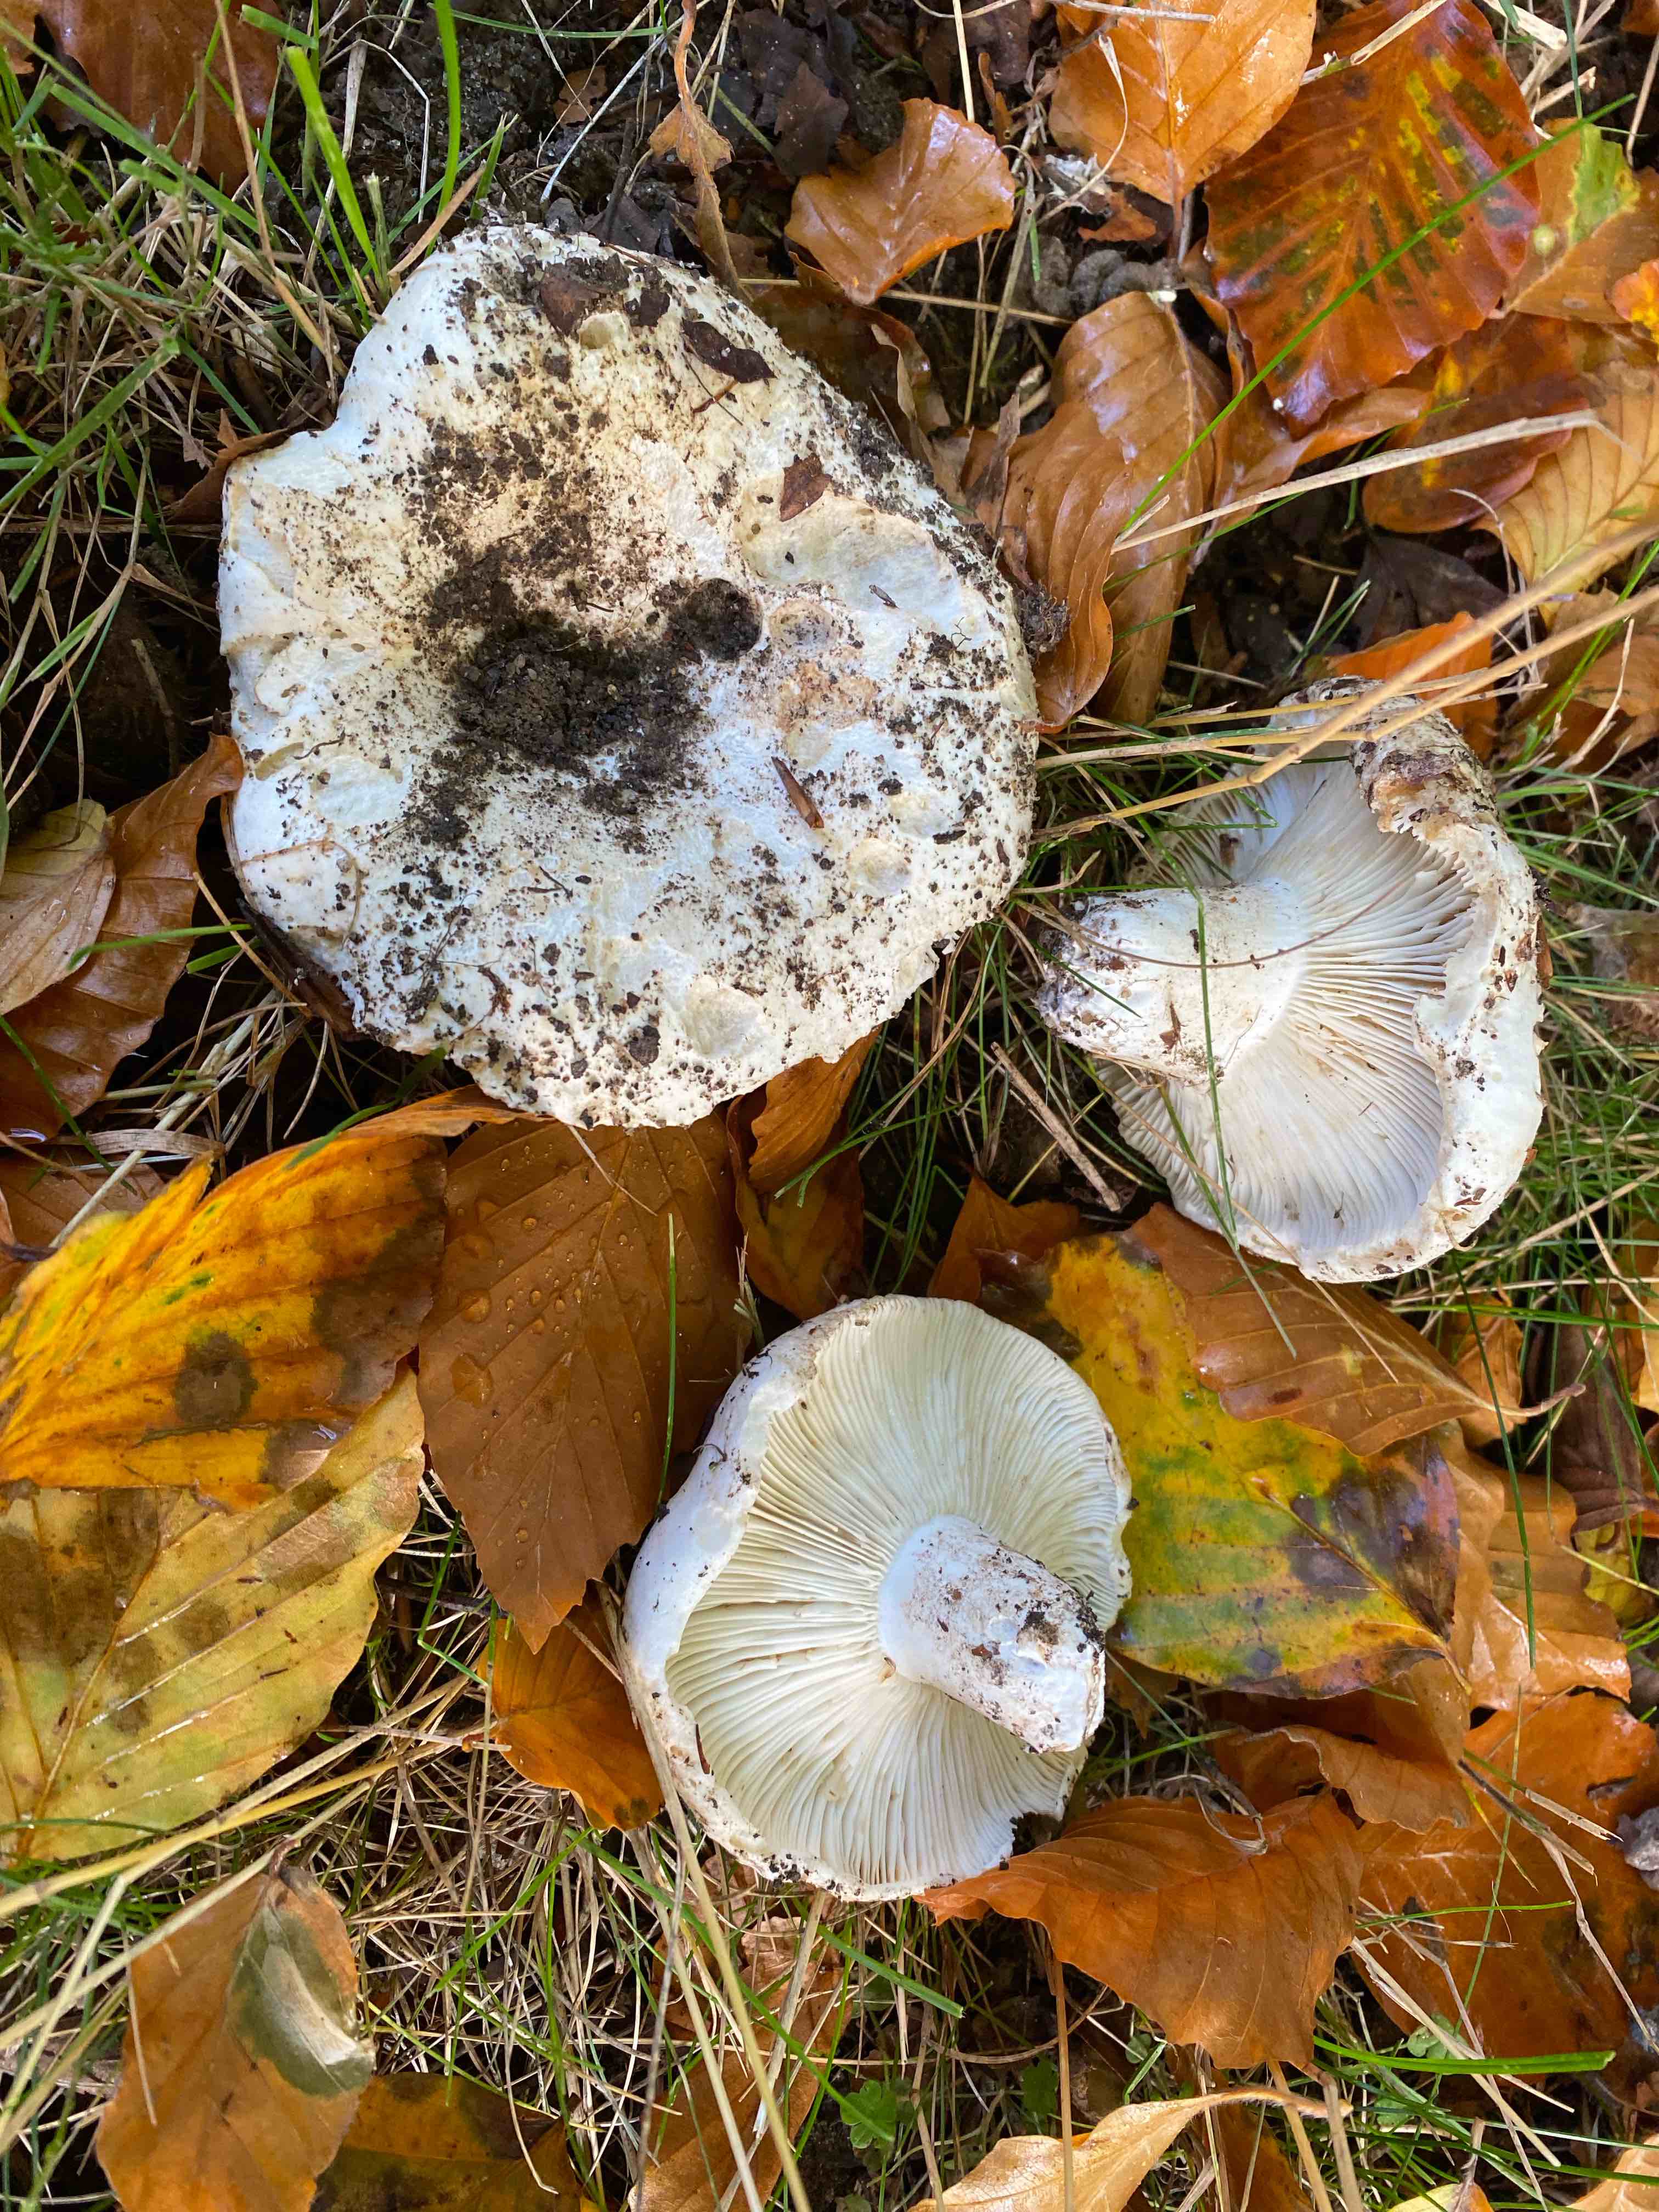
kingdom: Fungi
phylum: Basidiomycota
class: Agaricomycetes
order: Russulales
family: Russulaceae
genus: Russula
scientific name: Russula delica
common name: almindelig tragt-skørhat
